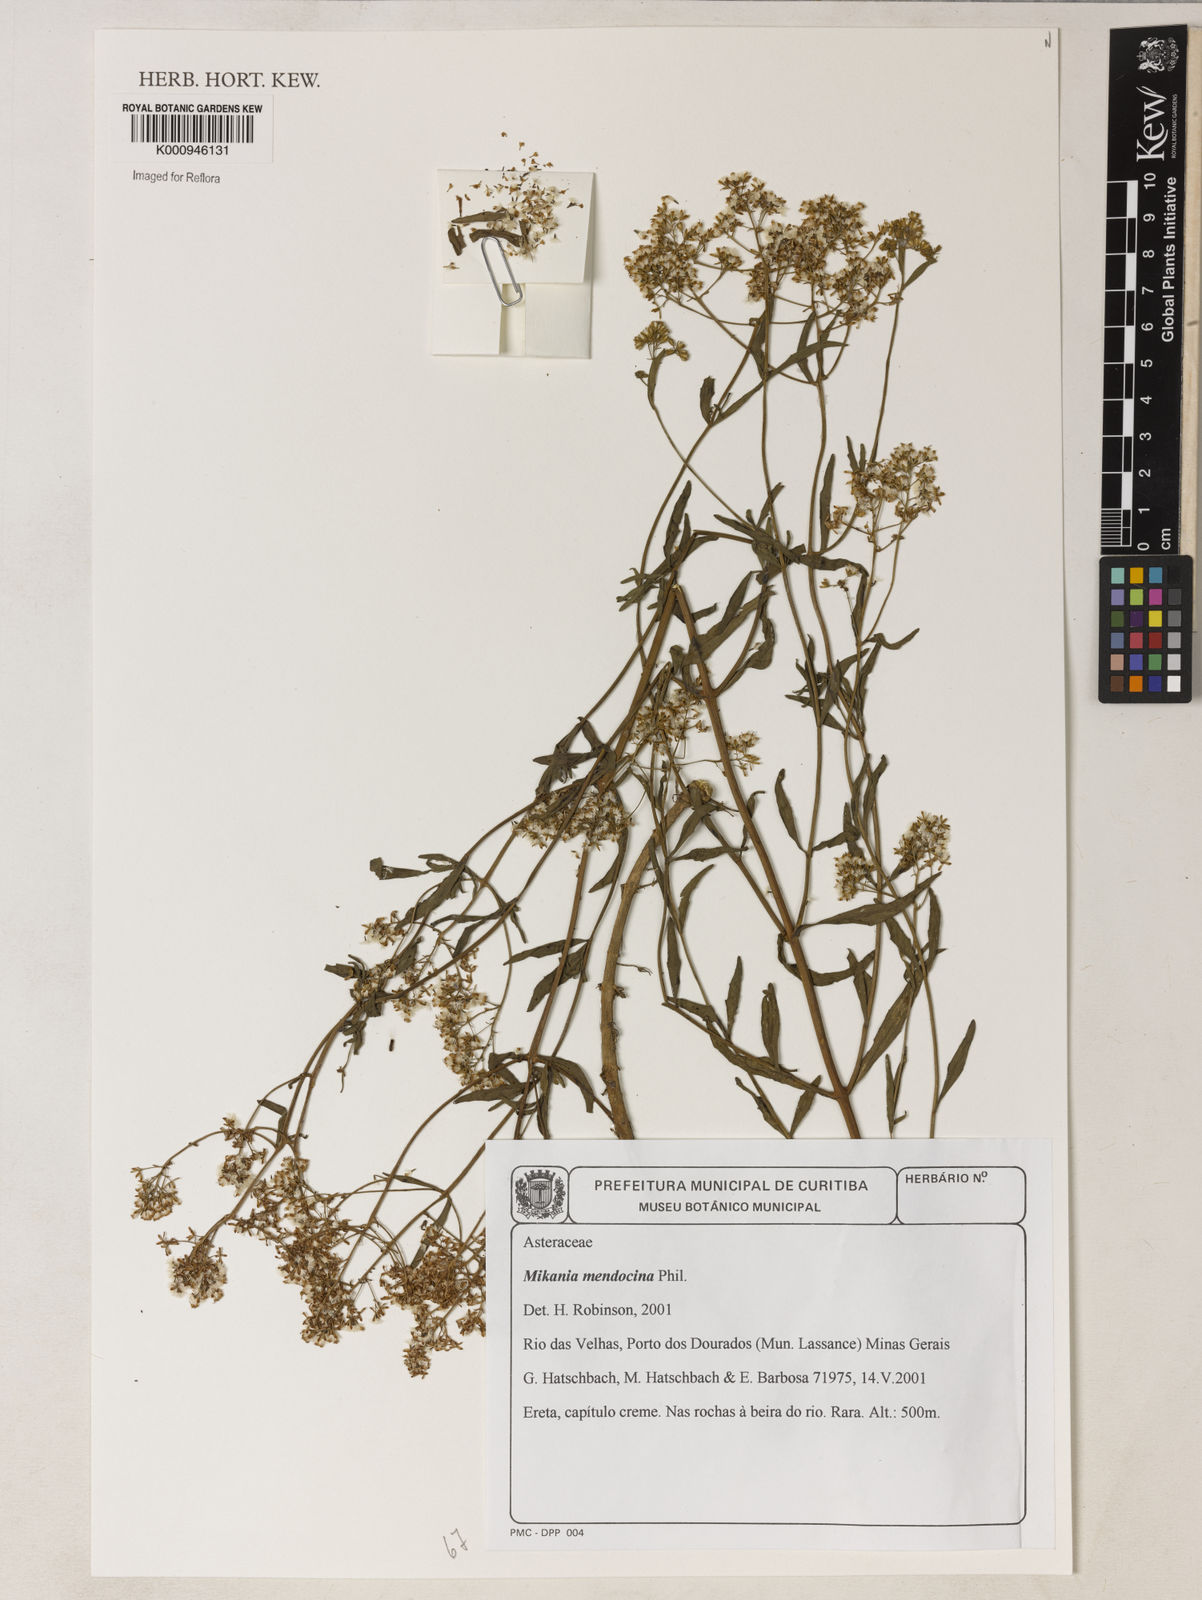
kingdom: Plantae
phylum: Tracheophyta
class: Magnoliopsida
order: Asterales
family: Asteraceae
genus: Mikania
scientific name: Mikania pachychaeta
